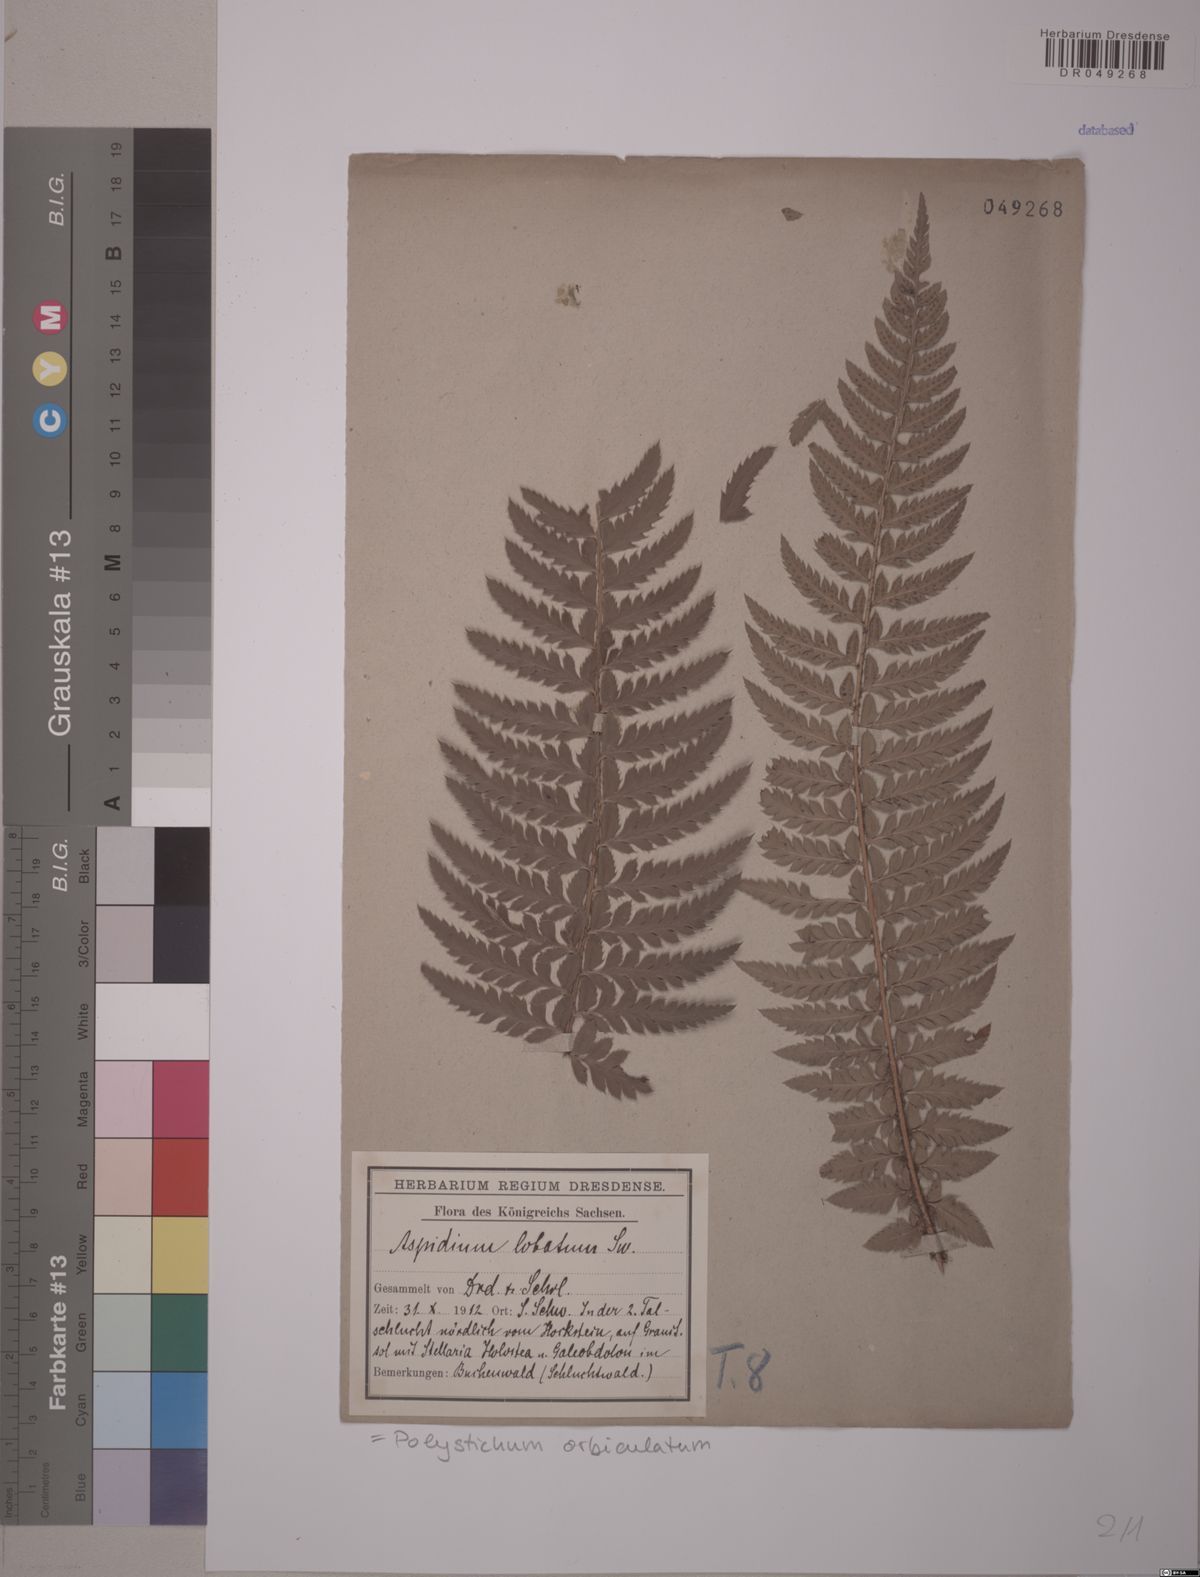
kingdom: Plantae
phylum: Tracheophyta
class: Polypodiopsida
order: Polypodiales
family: Dryopteridaceae
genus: Polystichum
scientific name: Polystichum aculeatum
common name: Hard shield-fern
